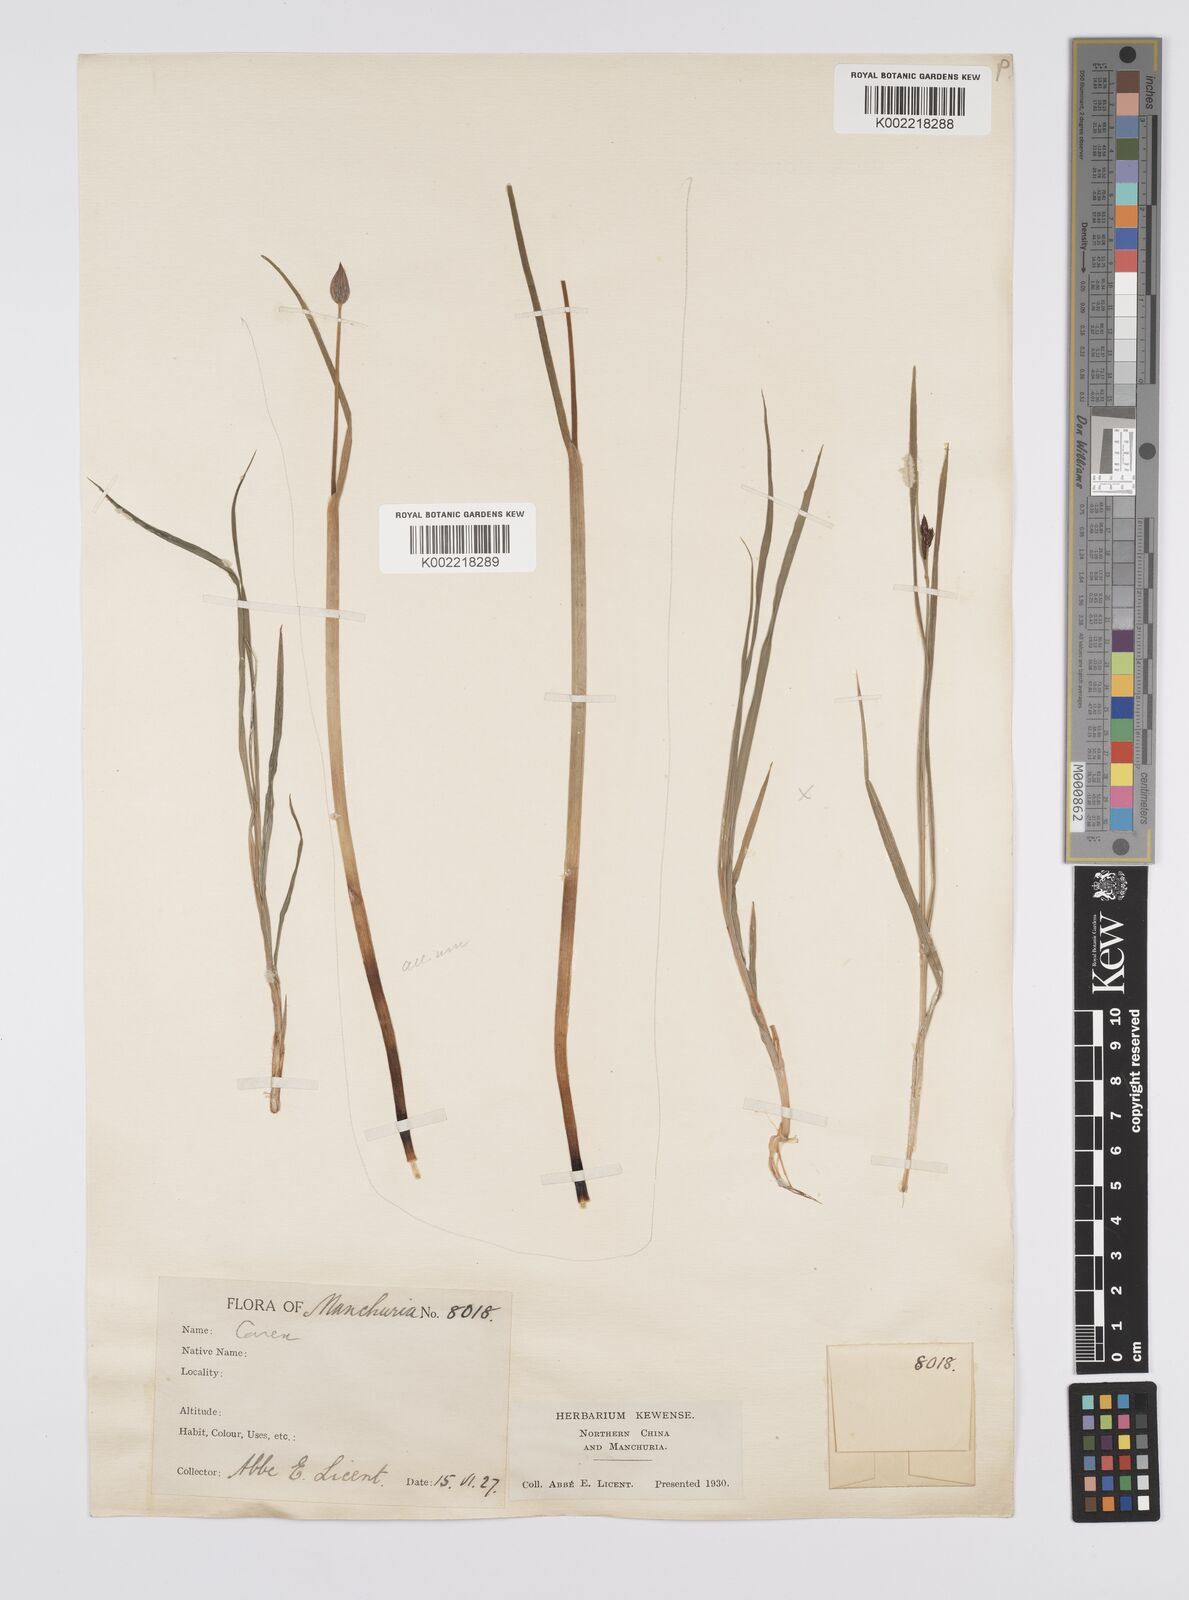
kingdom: Plantae
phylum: Tracheophyta
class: Liliopsida
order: Poales
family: Cyperaceae
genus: Carex
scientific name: Carex norvegica
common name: Close-headed alpine-sedge
